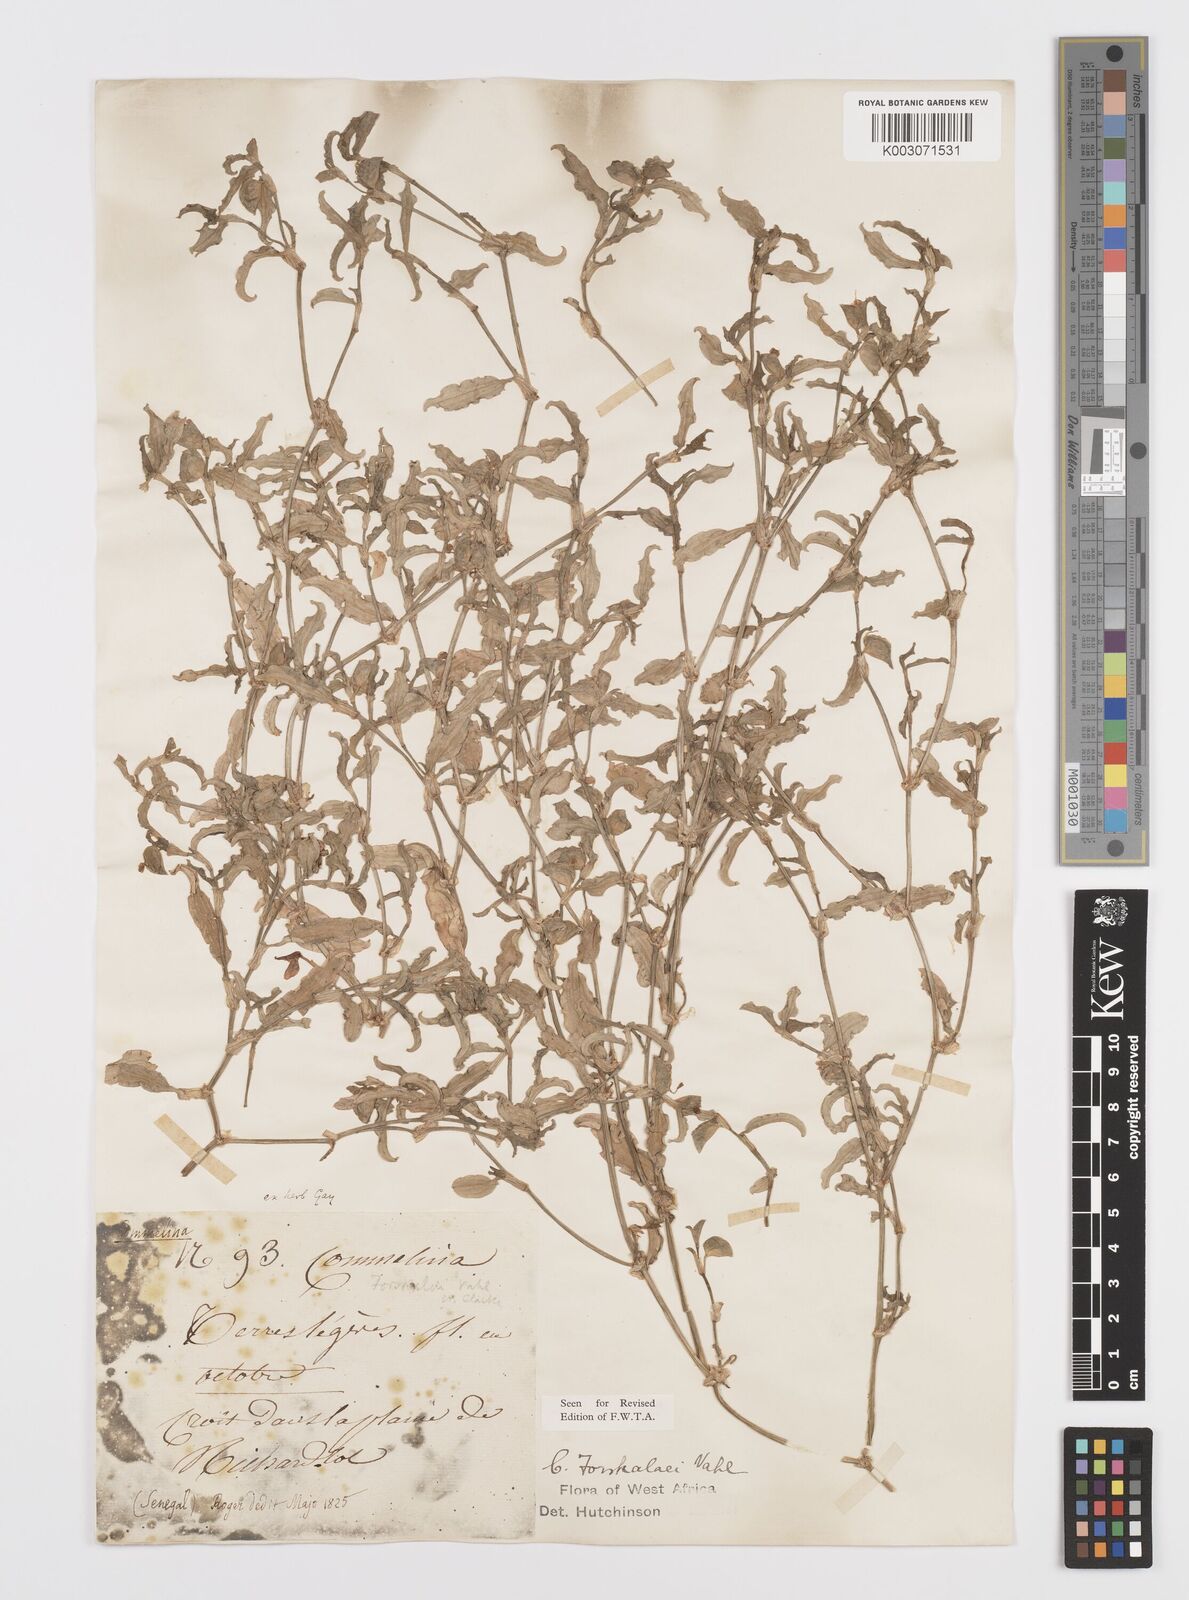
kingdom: Plantae
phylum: Tracheophyta
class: Liliopsida
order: Commelinales
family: Commelinaceae
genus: Commelina
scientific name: Commelina forskaolii
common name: Rat's ear
